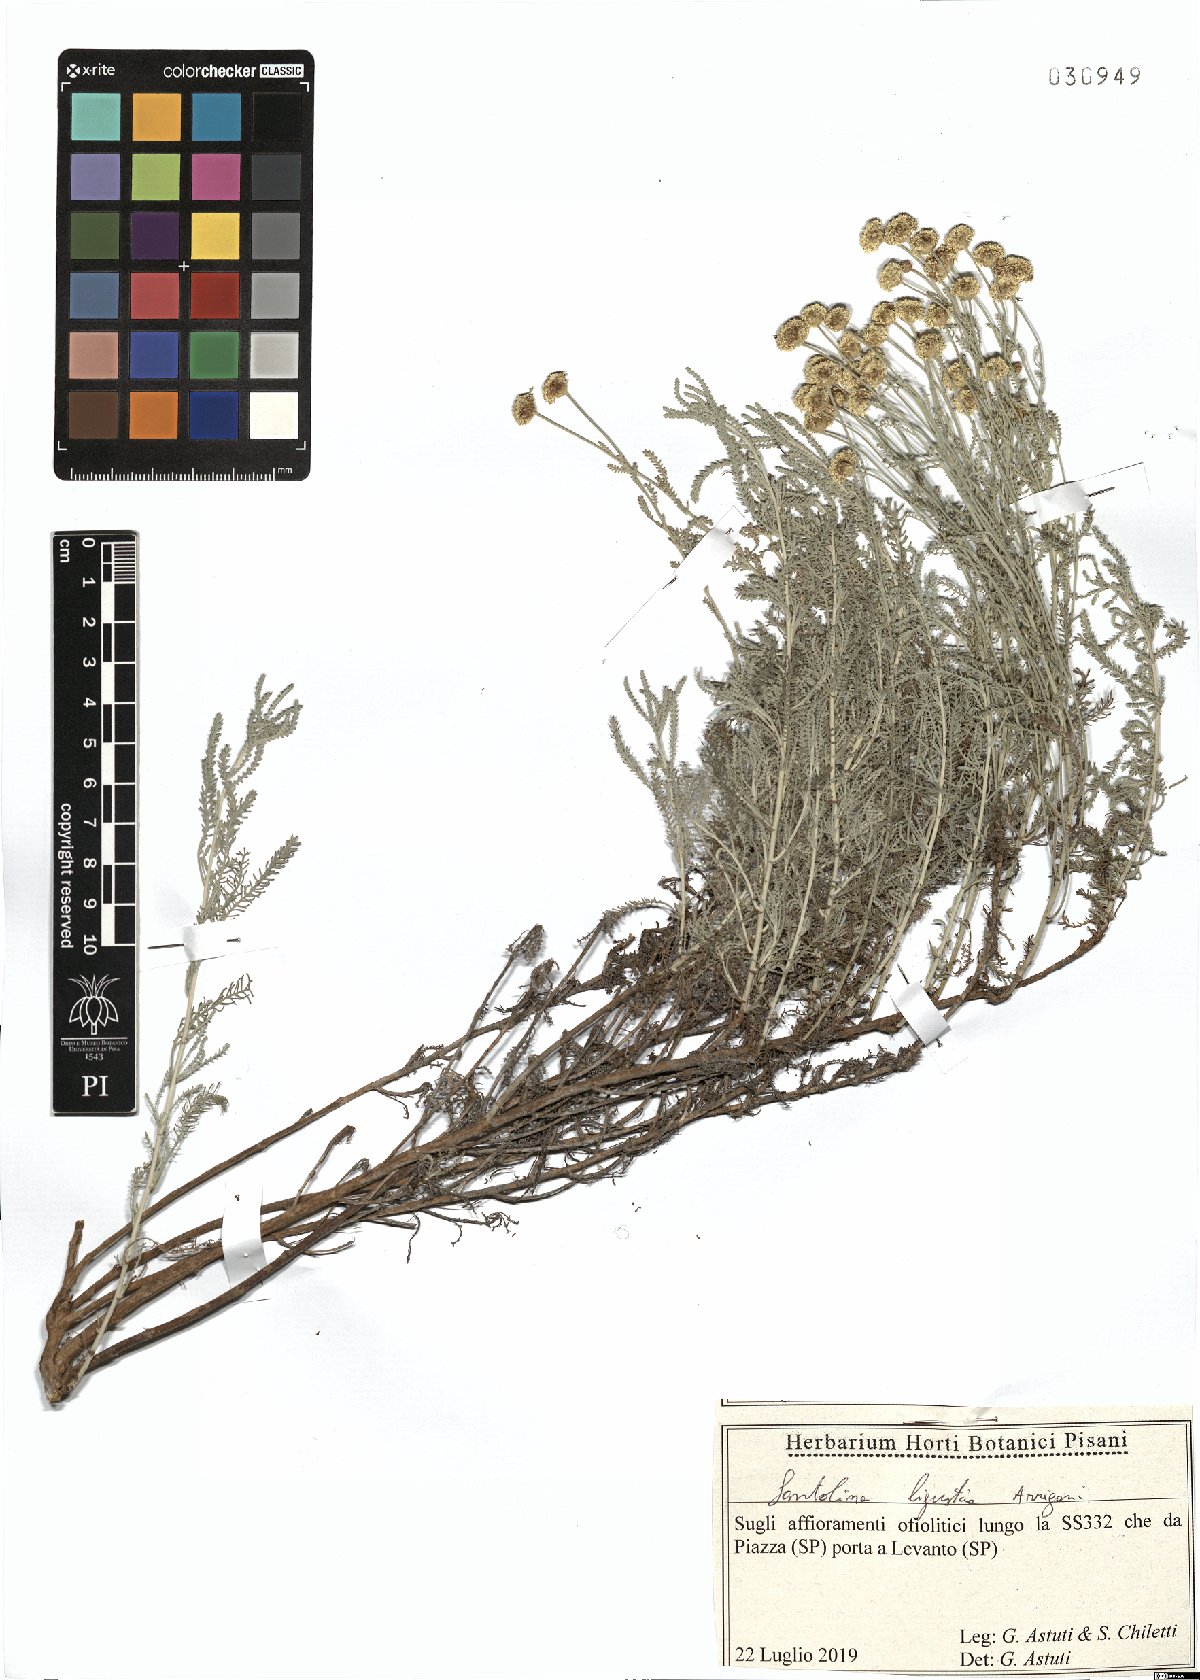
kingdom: Plantae
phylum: Tracheophyta
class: Magnoliopsida
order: Asterales
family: Asteraceae
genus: Santolina
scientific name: Santolina ligustica
